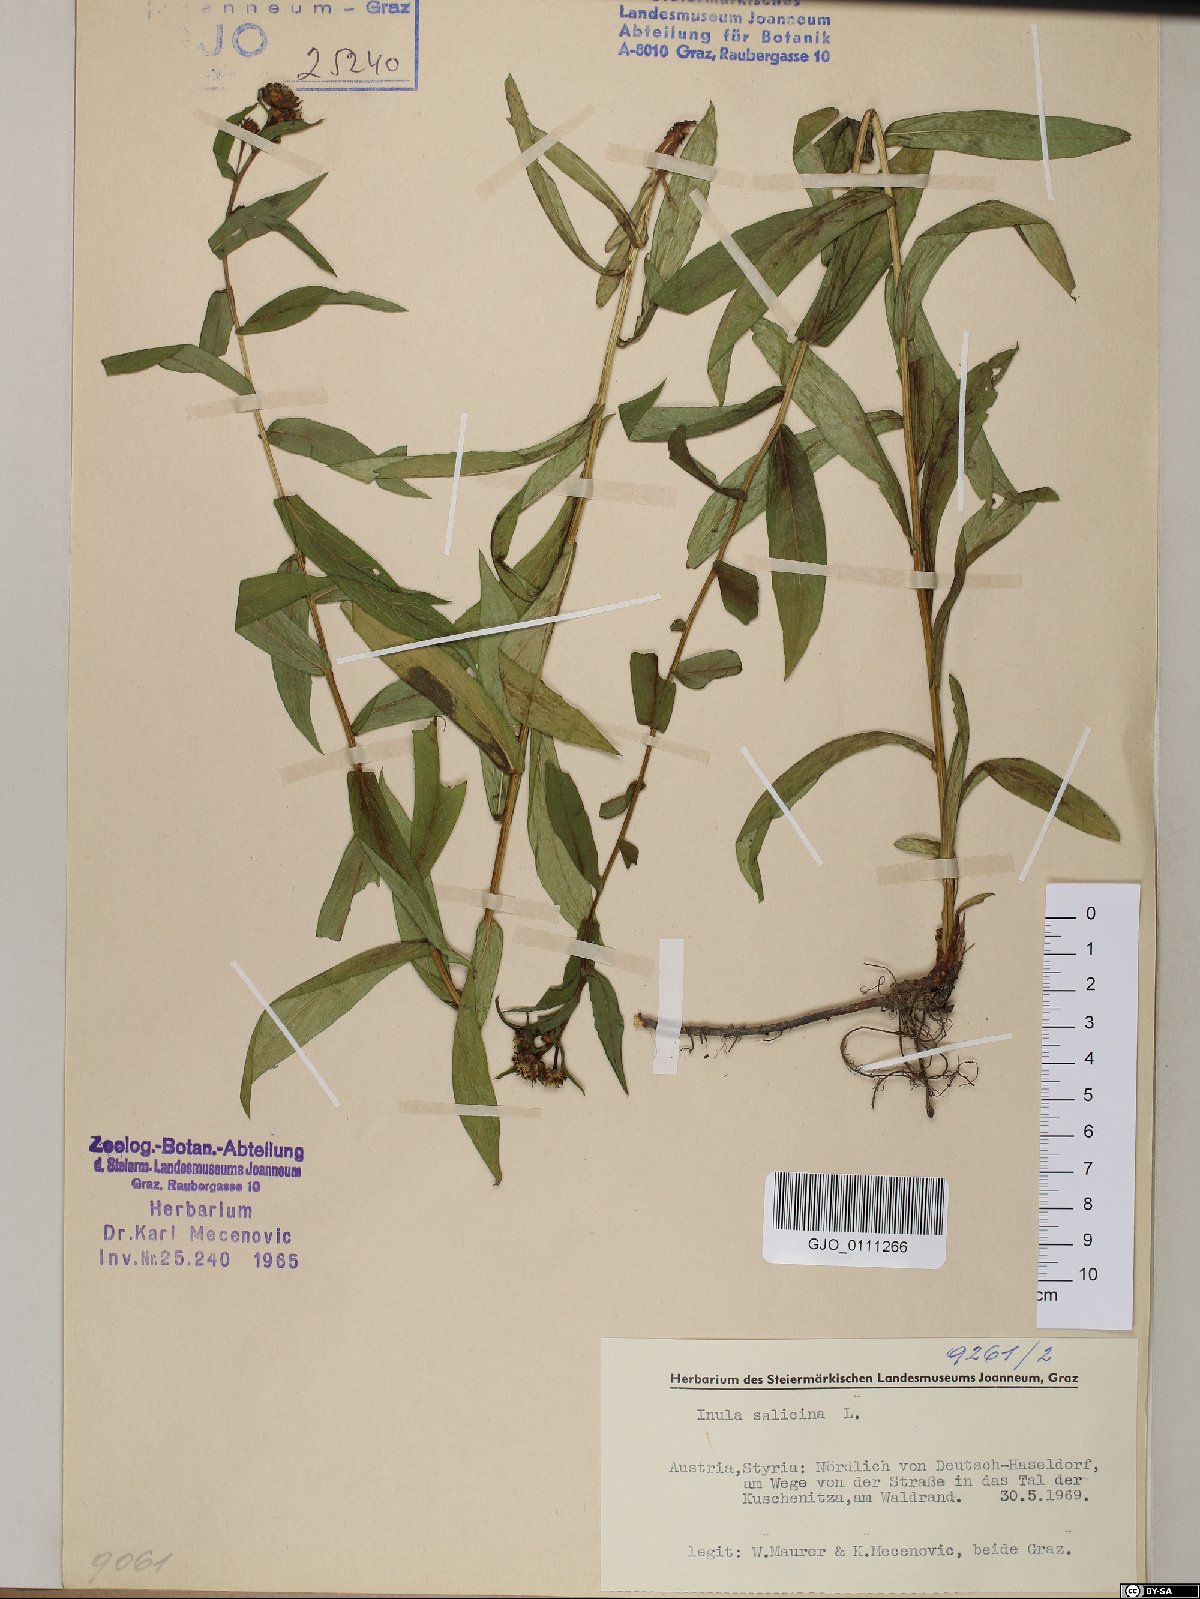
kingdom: Plantae
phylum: Tracheophyta
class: Magnoliopsida
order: Asterales
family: Asteraceae
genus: Pentanema
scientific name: Pentanema salicinum
